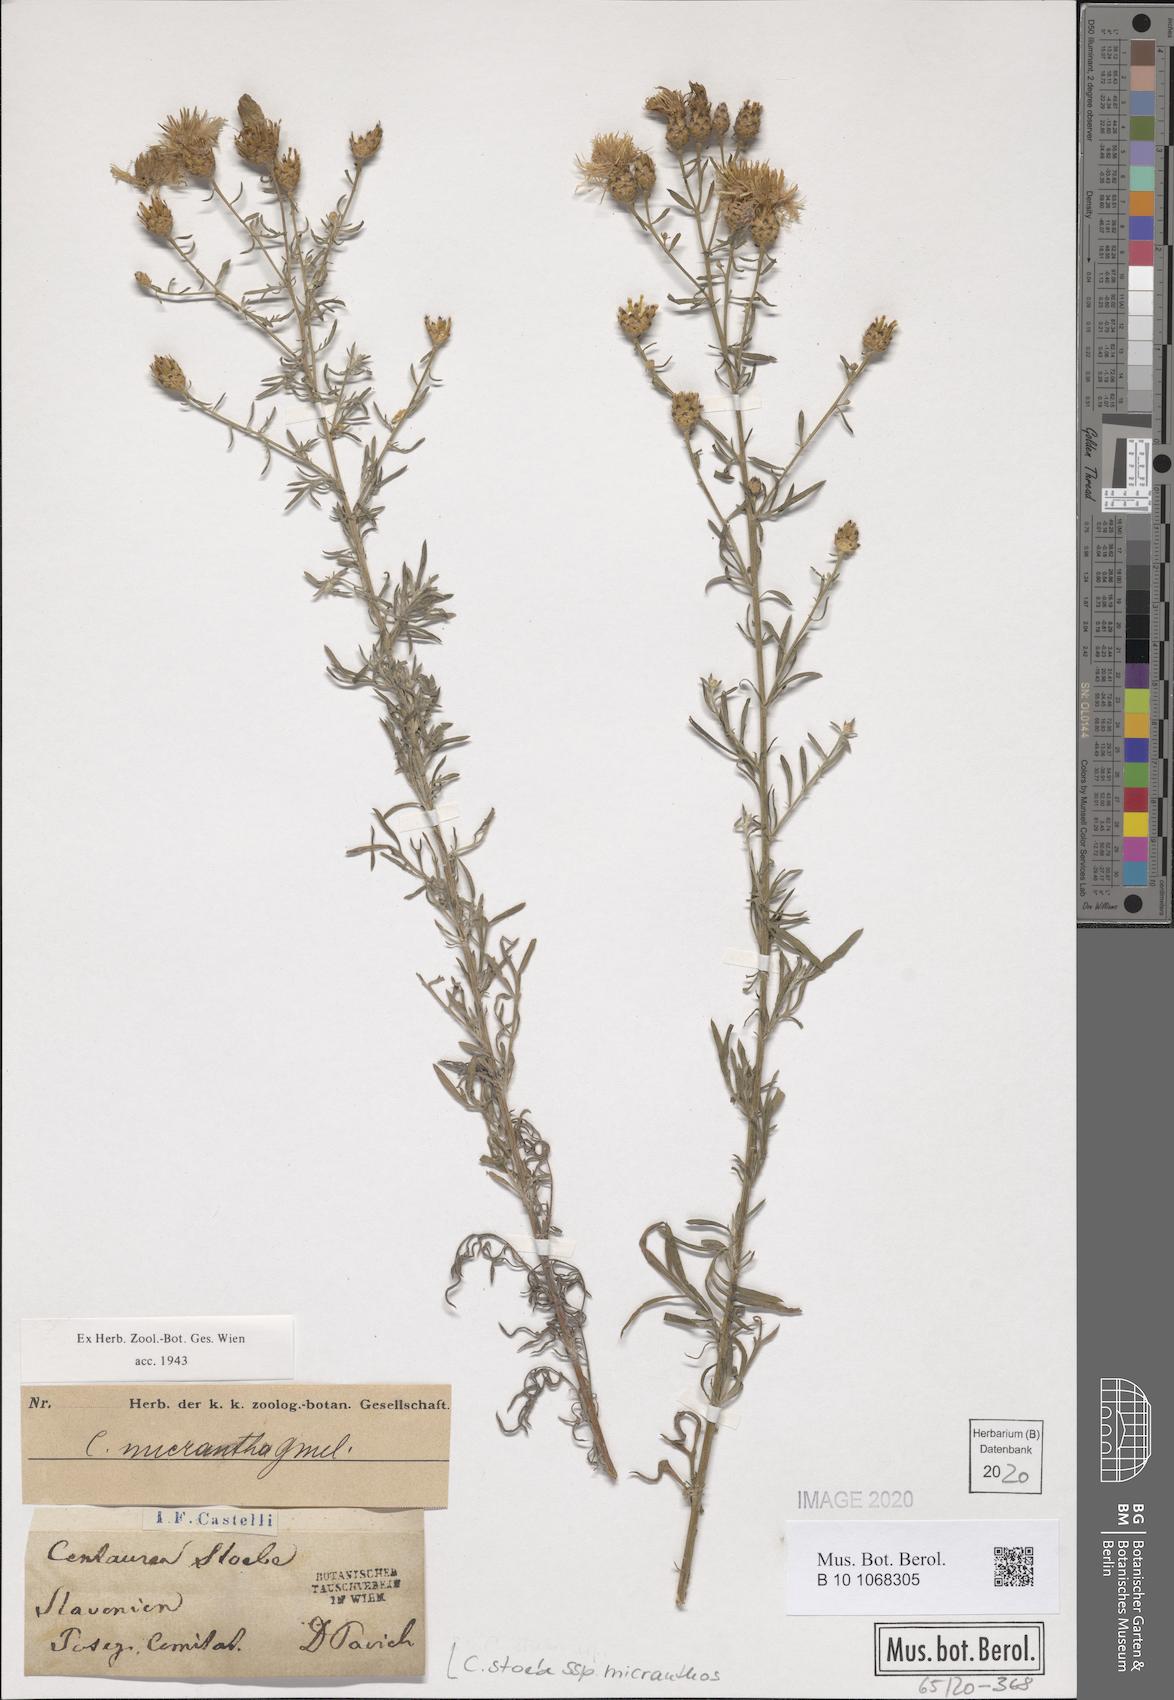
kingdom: Plantae
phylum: Tracheophyta
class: Magnoliopsida
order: Asterales
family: Asteraceae
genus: Centaurea
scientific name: Centaurea australis
